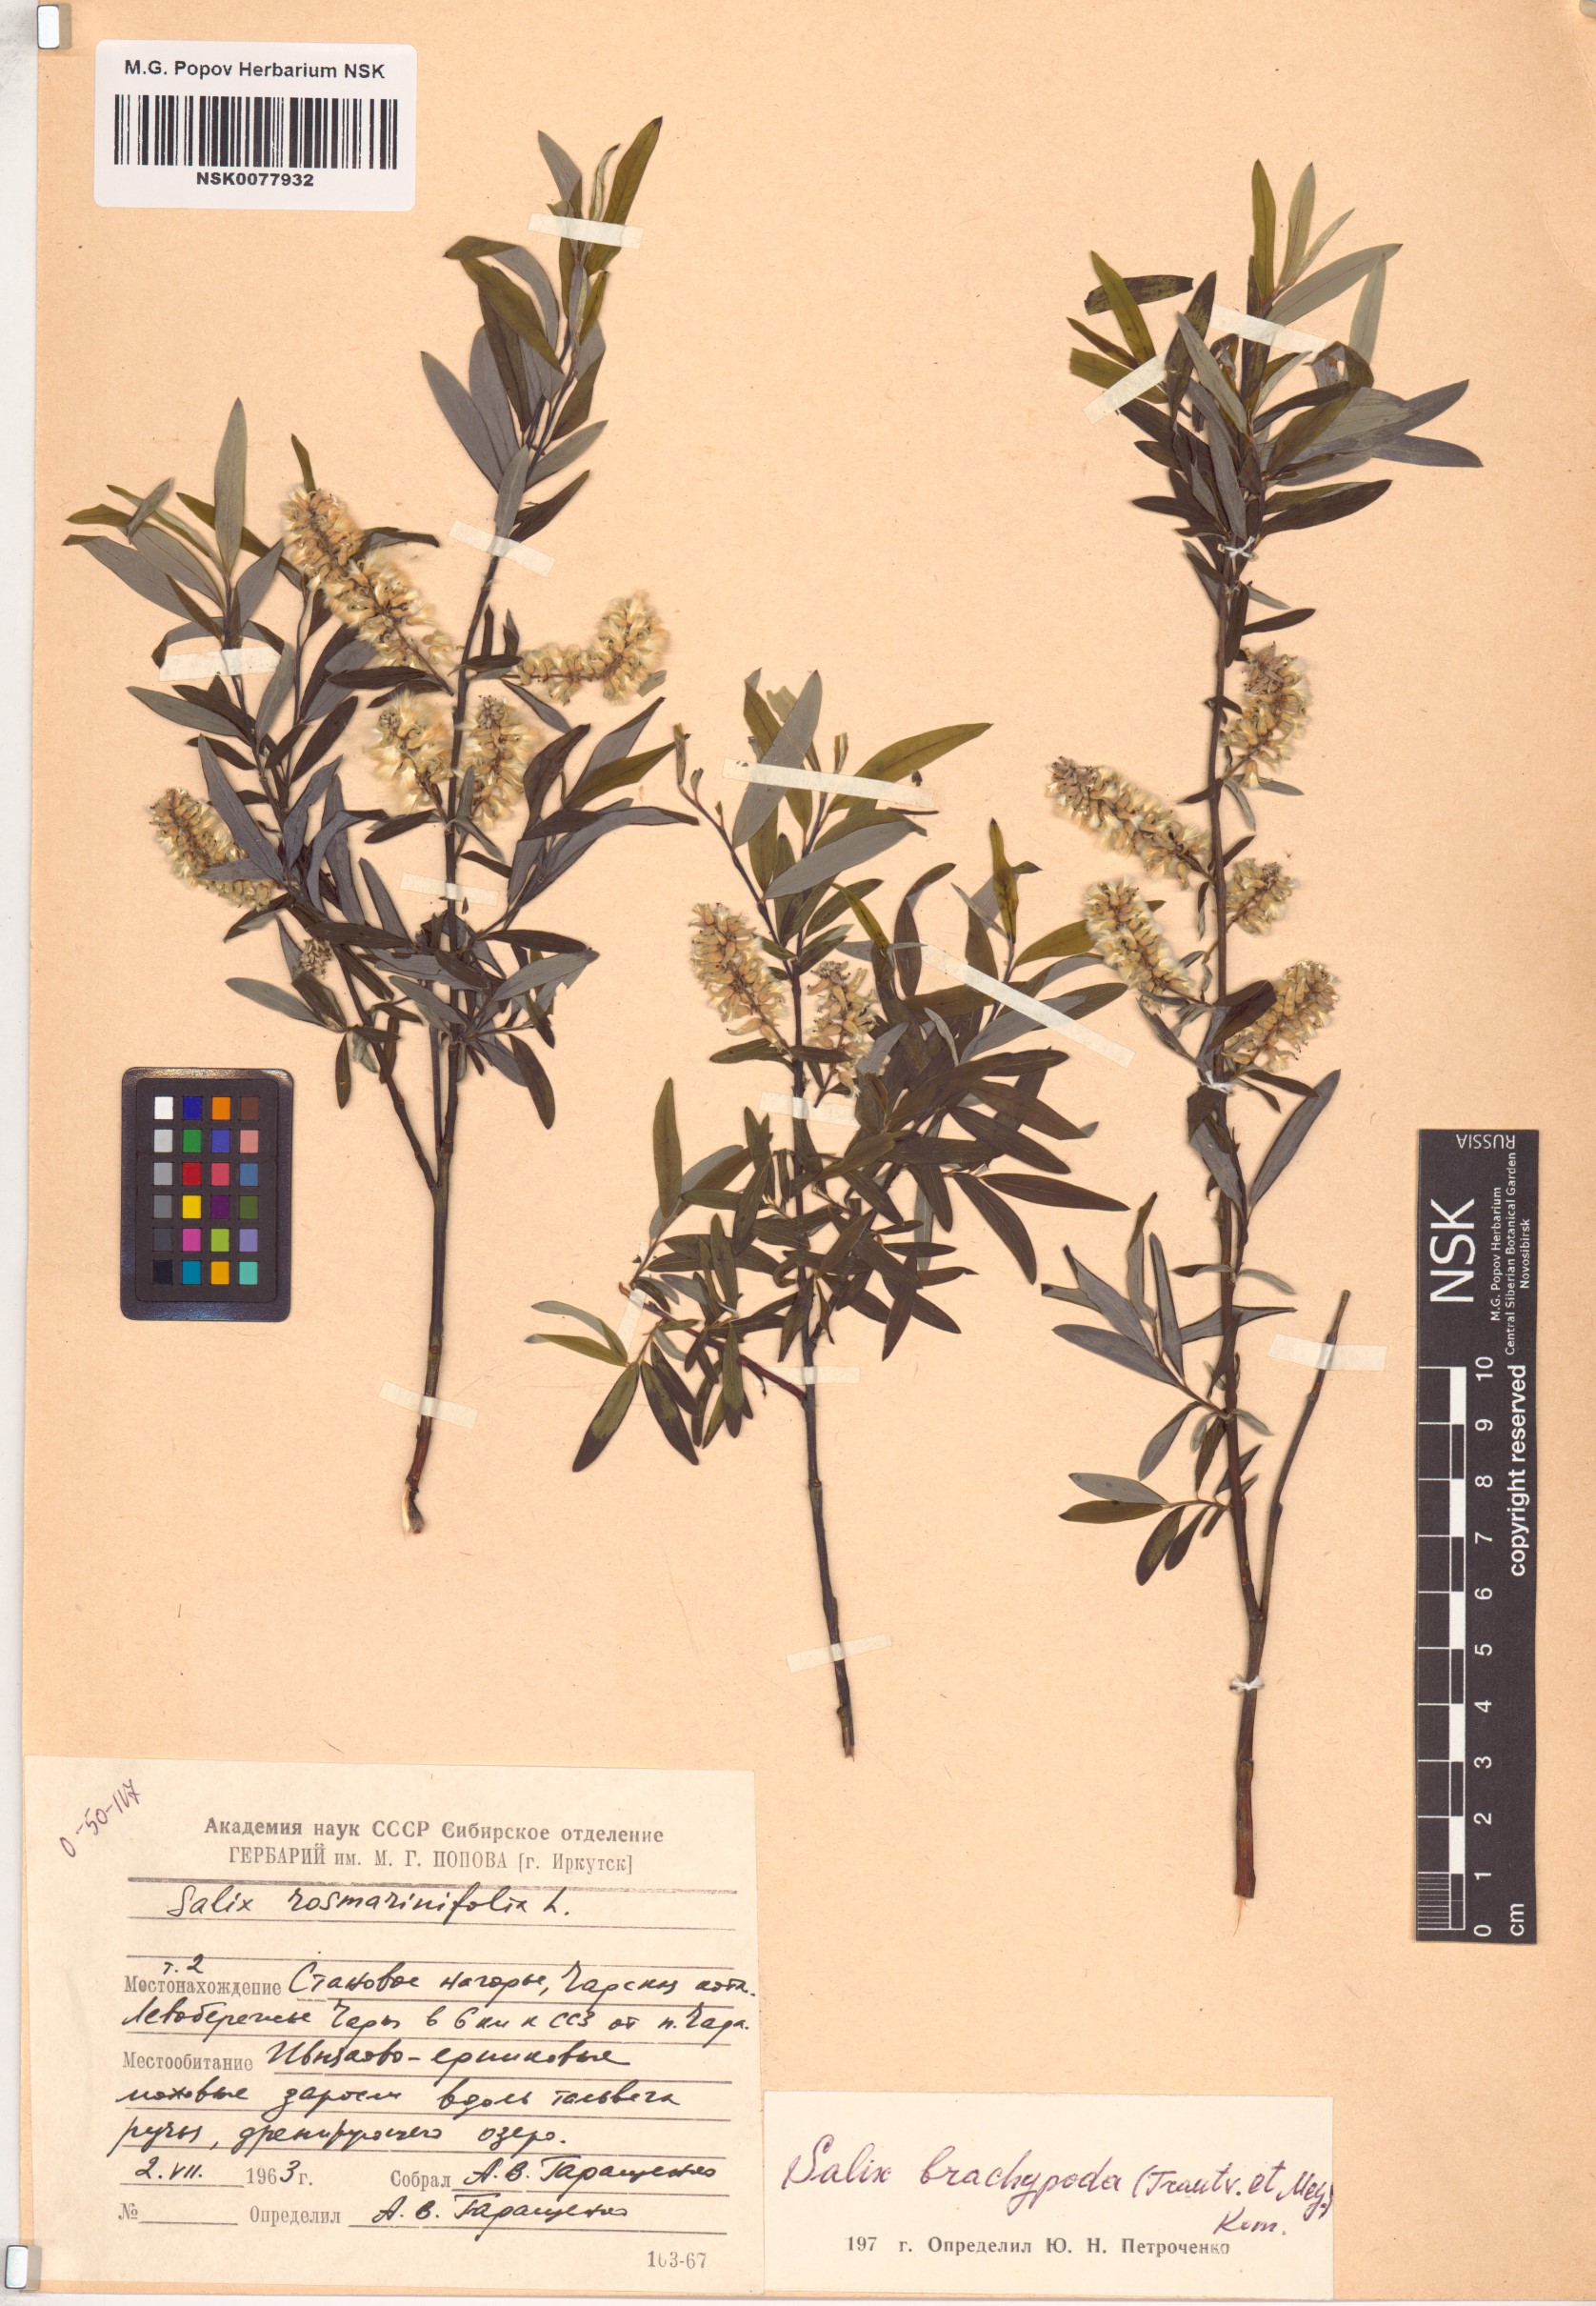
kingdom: Plantae
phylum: Tracheophyta
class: Magnoliopsida
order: Malpighiales
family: Salicaceae
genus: Salix
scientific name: Salix brachypoda
